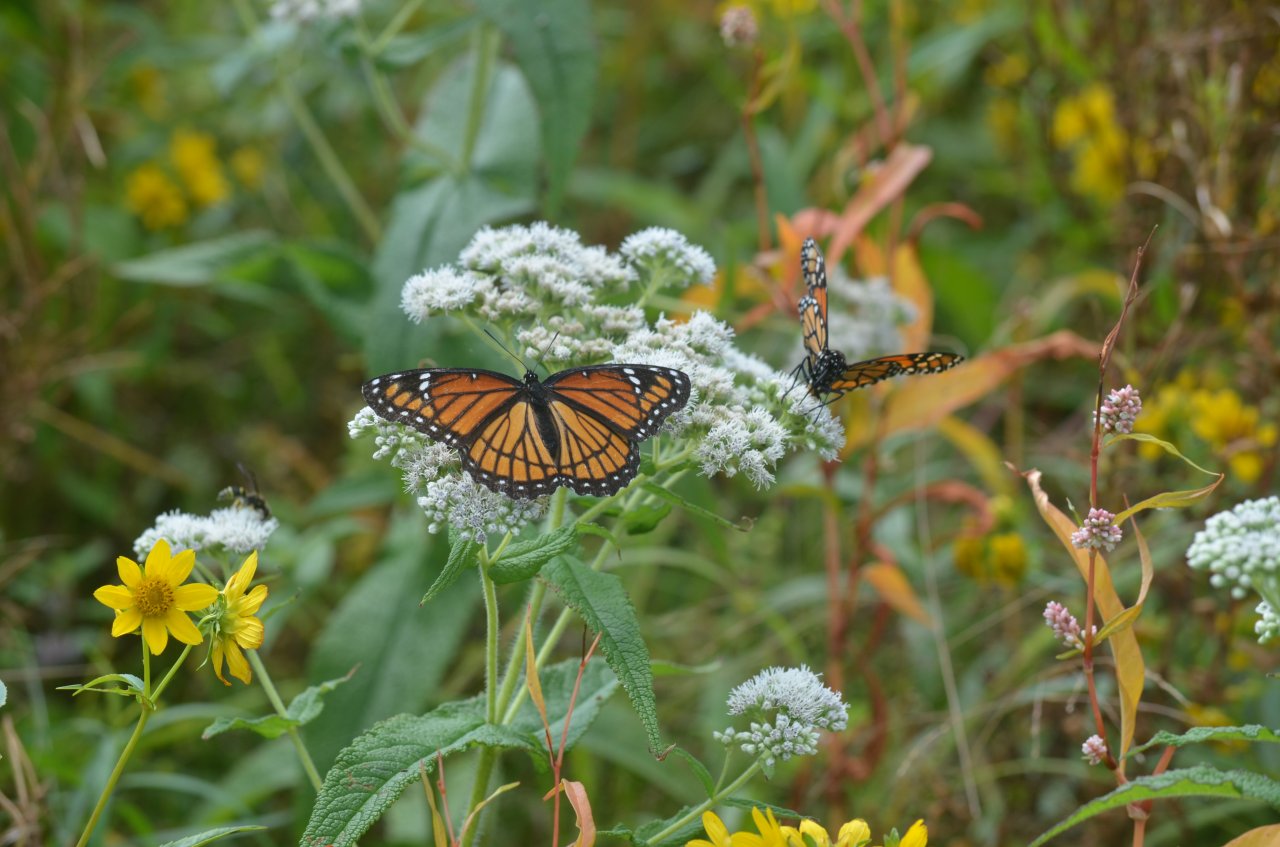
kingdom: Animalia
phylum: Arthropoda
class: Insecta
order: Lepidoptera
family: Nymphalidae
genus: Limenitis
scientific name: Limenitis archippus
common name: Viceroy
